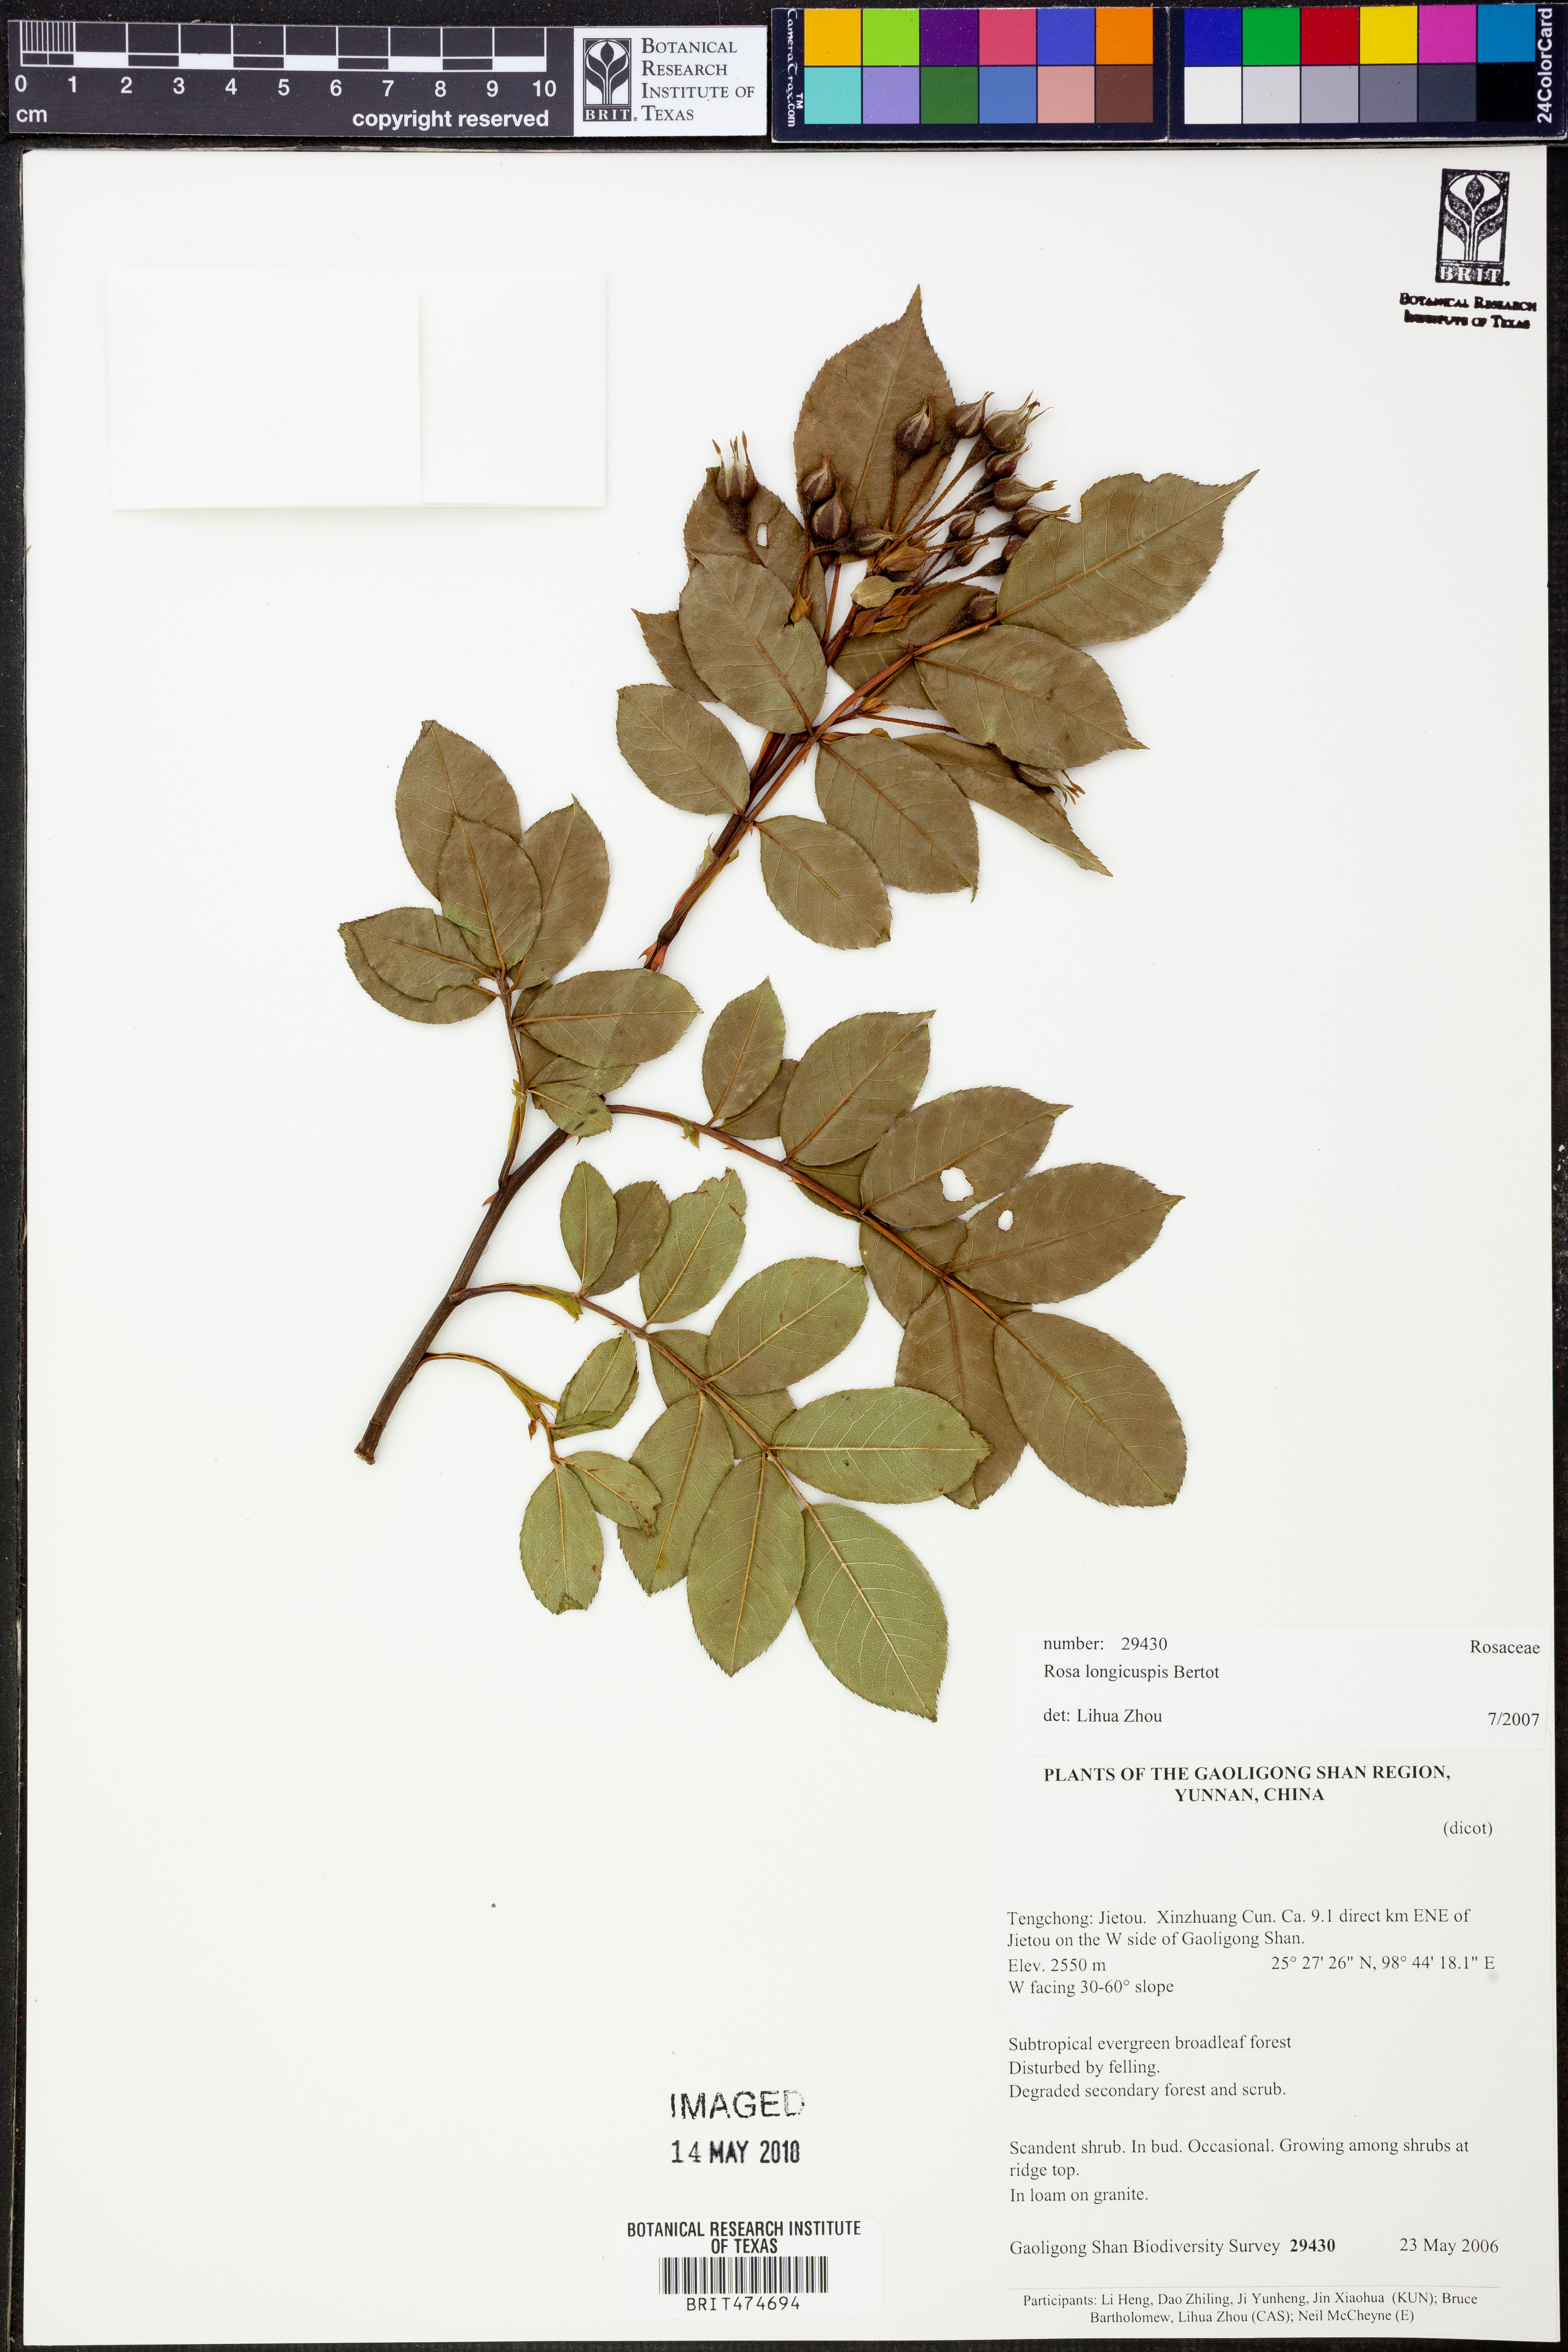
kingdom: Plantae
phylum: Tracheophyta
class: Magnoliopsida
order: Rosales
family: Rosaceae
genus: Rosa
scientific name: Rosa longicuspis
